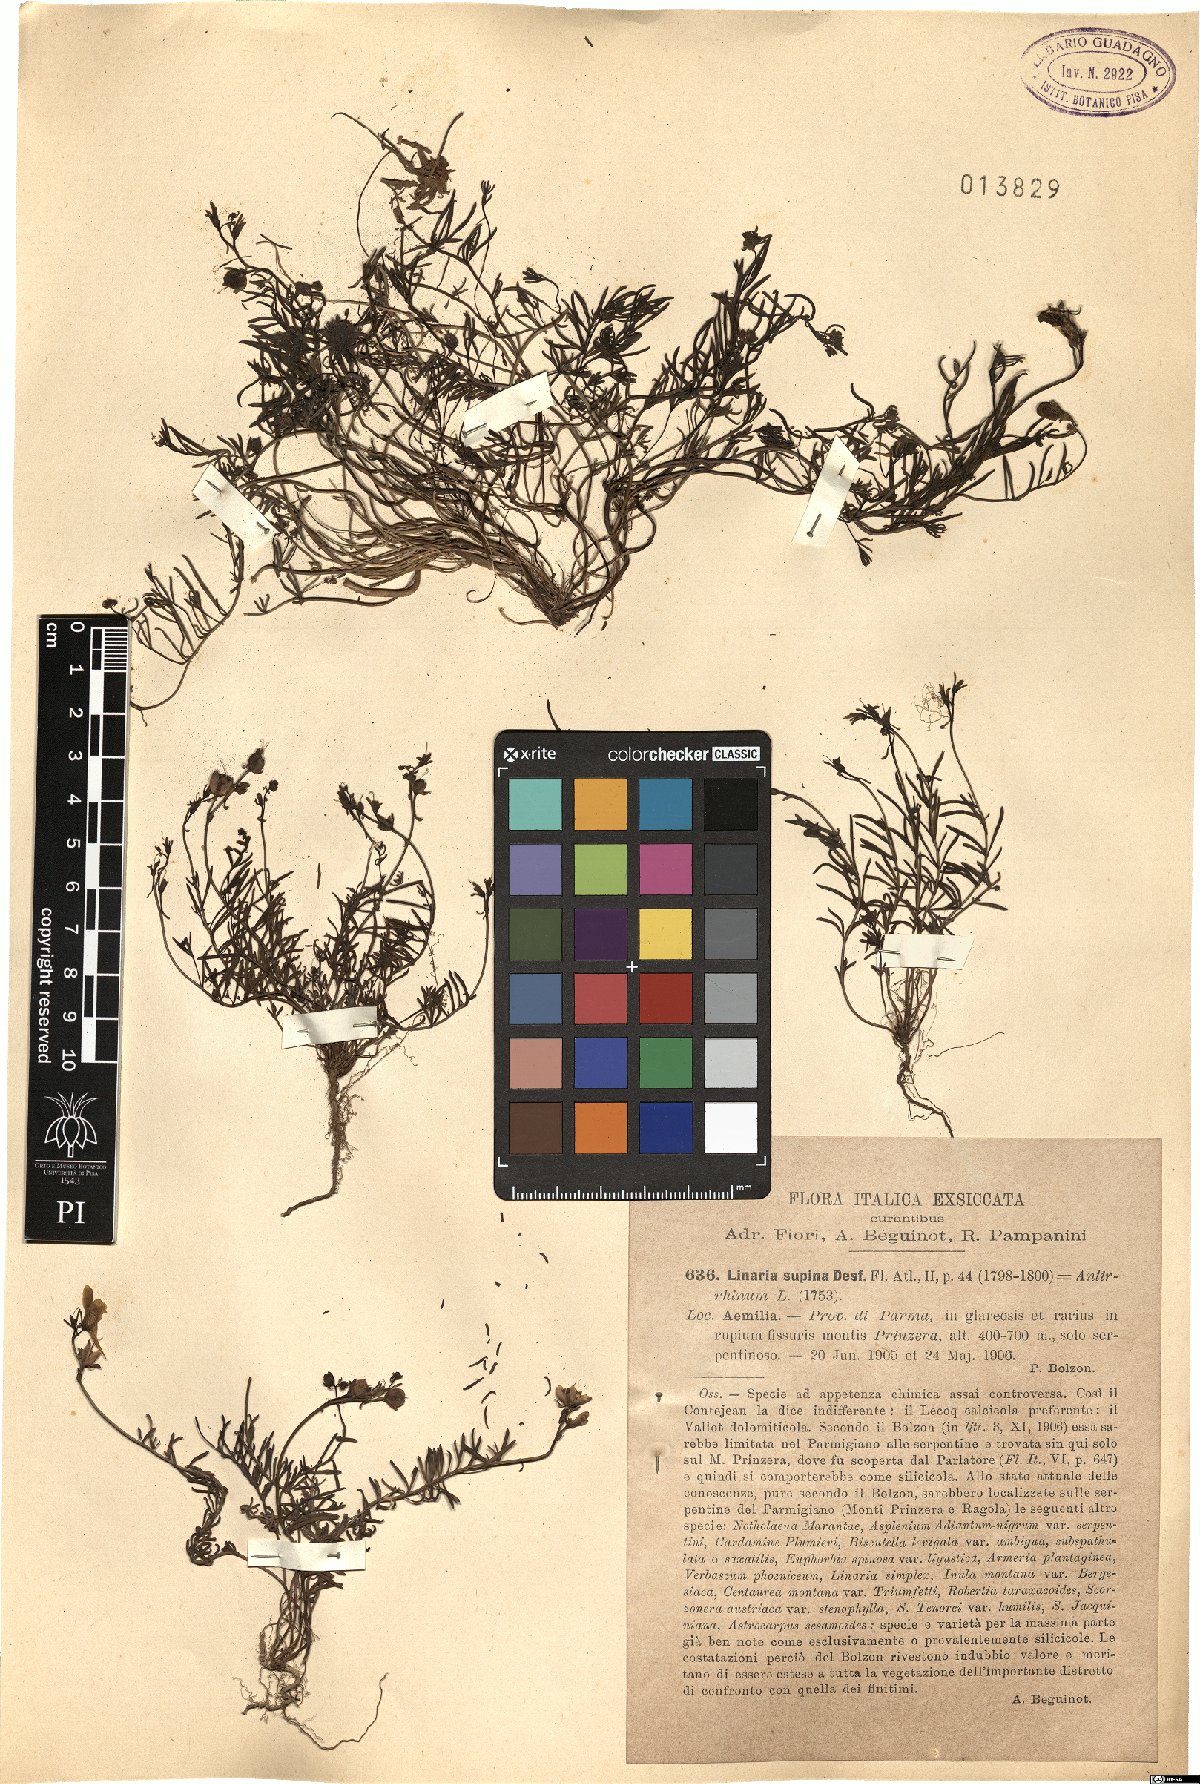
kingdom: Plantae
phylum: Tracheophyta
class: Magnoliopsida
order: Lamiales
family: Plantaginaceae
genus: Linaria
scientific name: Linaria supina
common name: Prostrate toadflax
